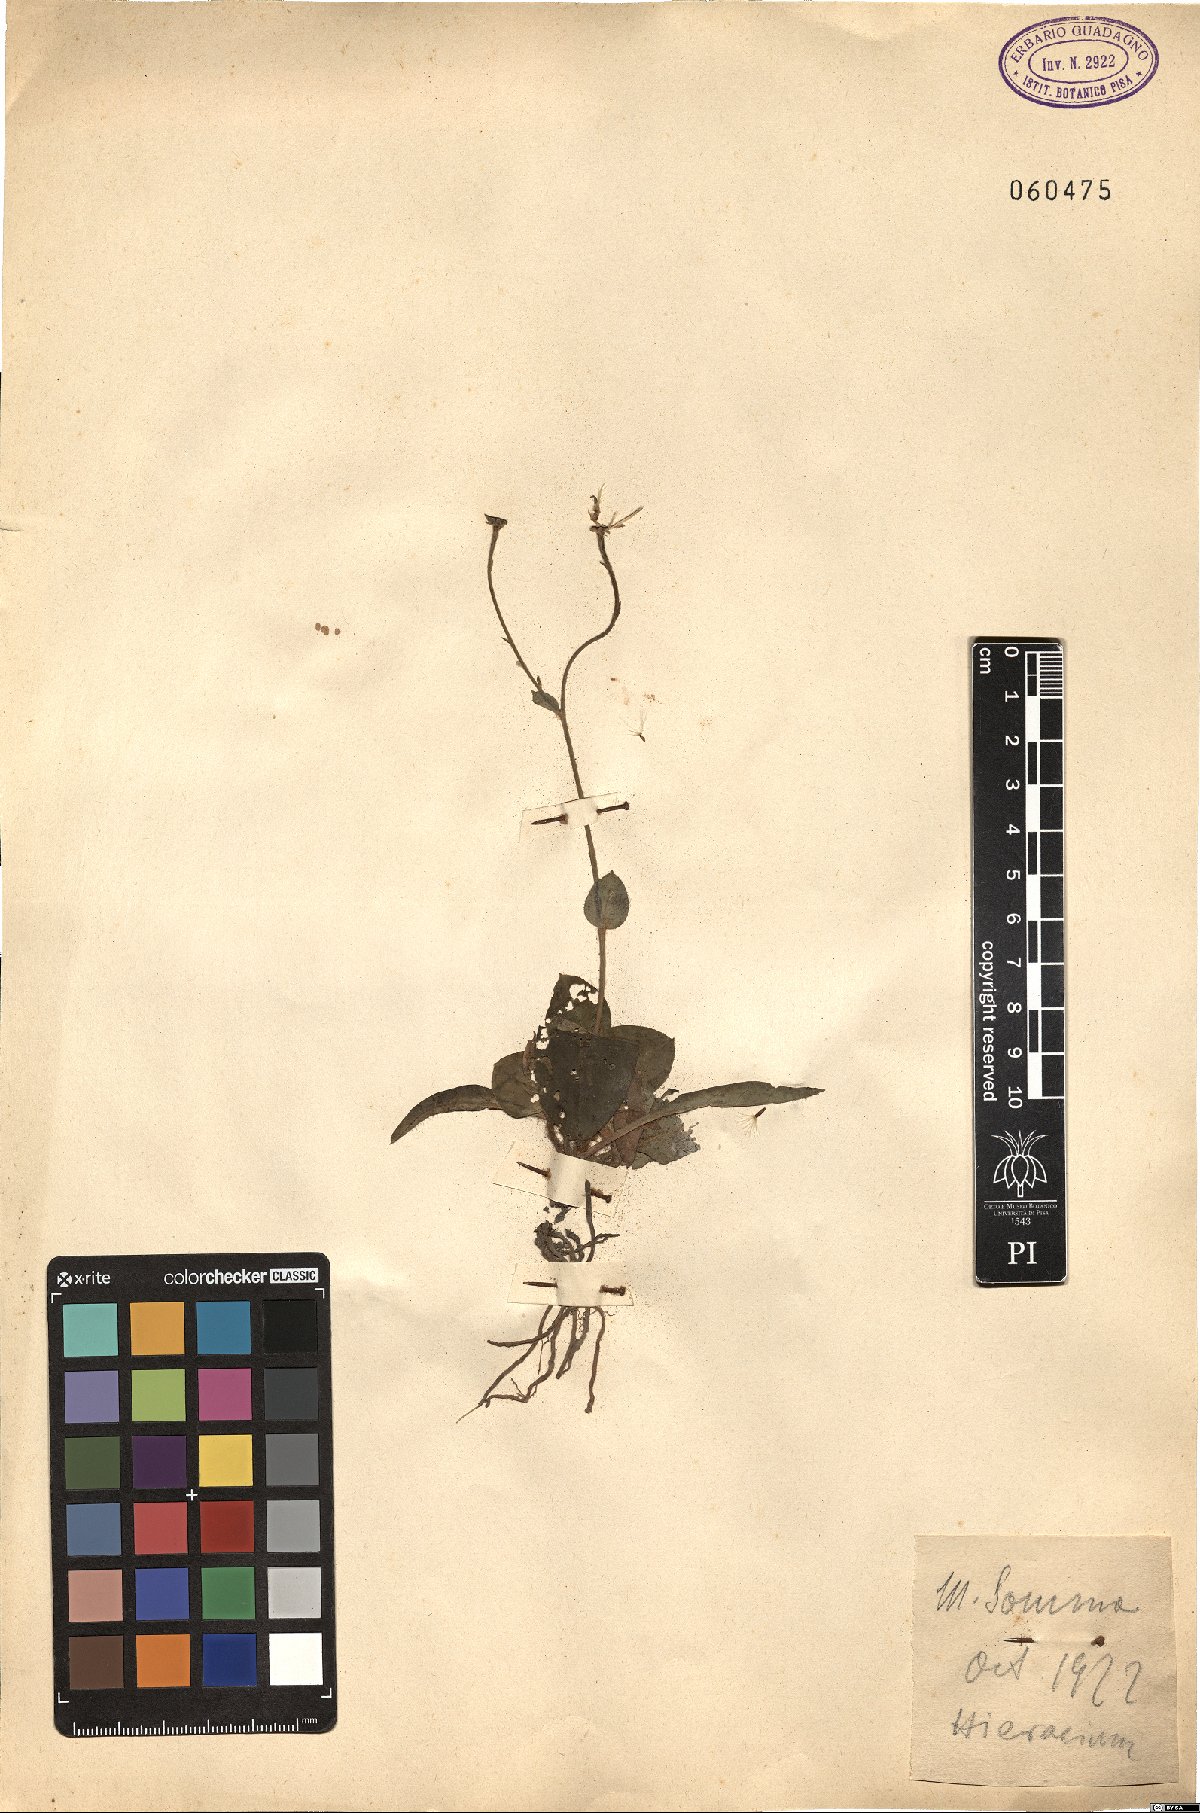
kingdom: Plantae
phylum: Tracheophyta
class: Magnoliopsida
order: Asterales
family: Asteraceae
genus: Hieracium
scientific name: Hieracium
